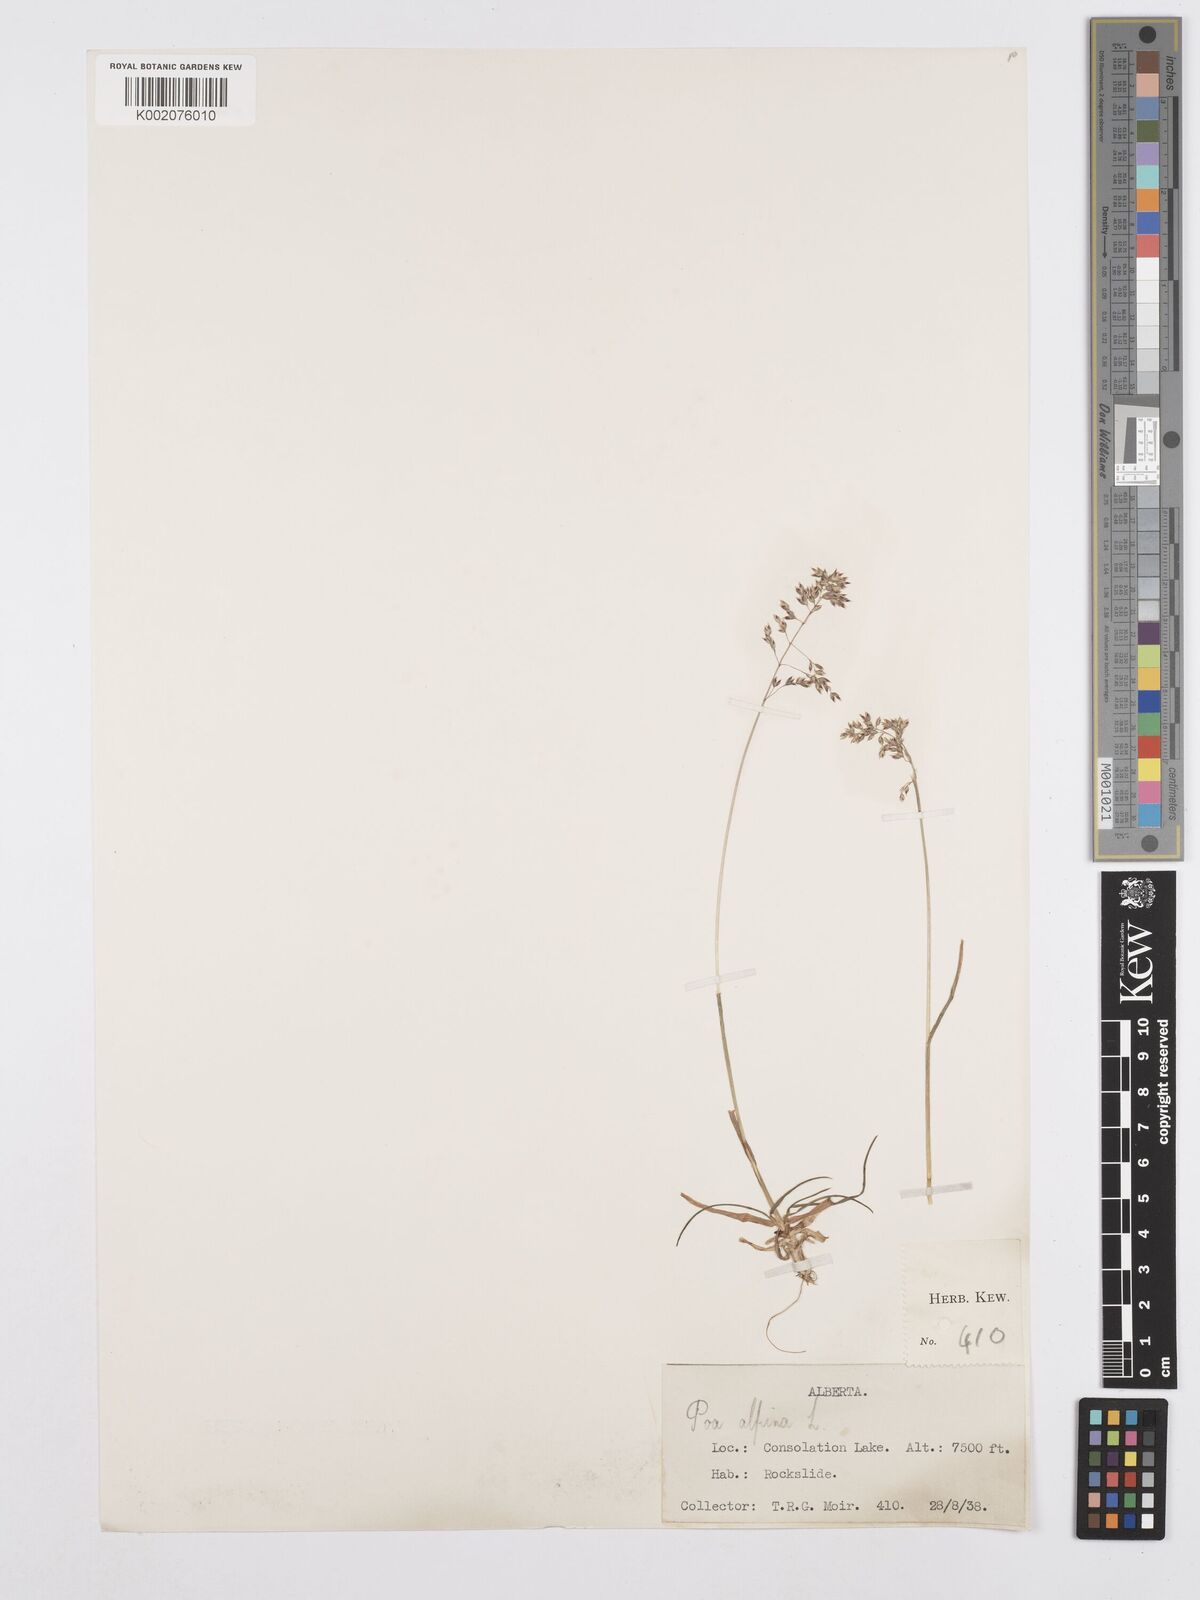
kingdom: Plantae
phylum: Tracheophyta
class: Liliopsida
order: Poales
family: Poaceae
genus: Poa
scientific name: Poa alpina
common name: Alpine bluegrass
